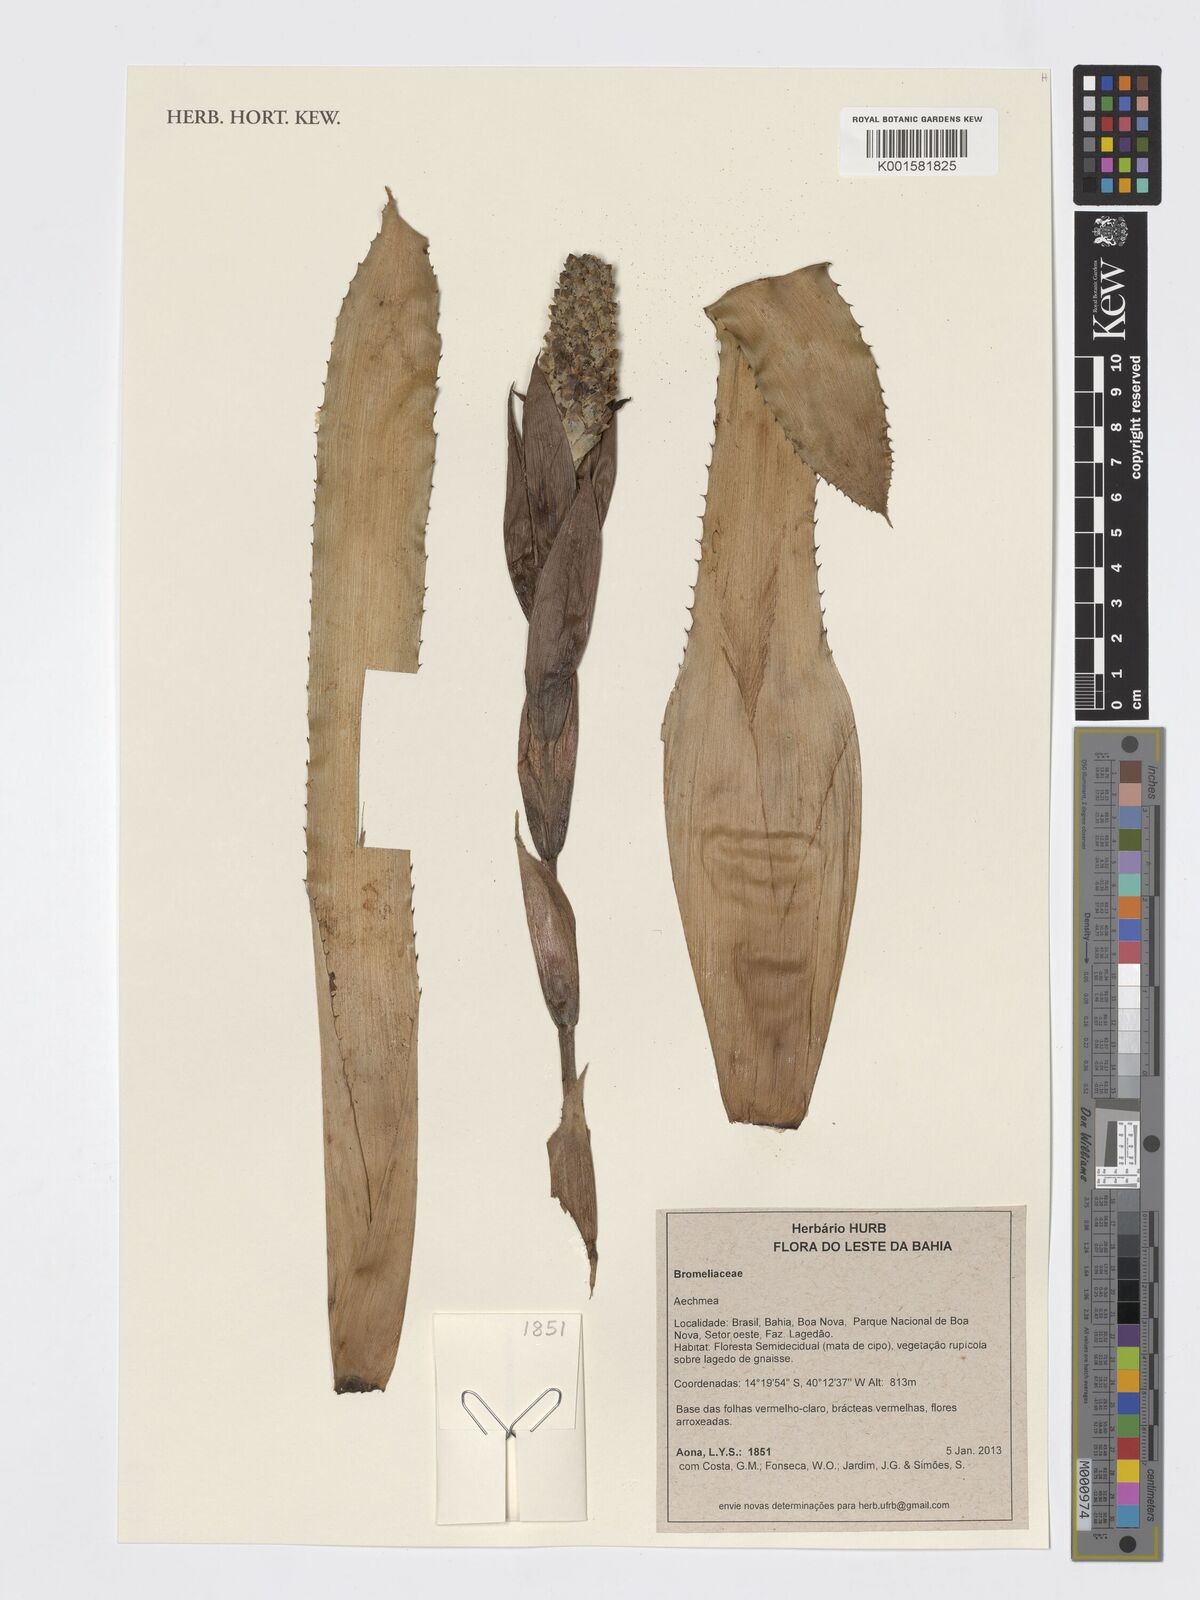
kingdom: Plantae
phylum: Tracheophyta
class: Liliopsida
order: Poales
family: Bromeliaceae
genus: Aechmea
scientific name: Aechmea
